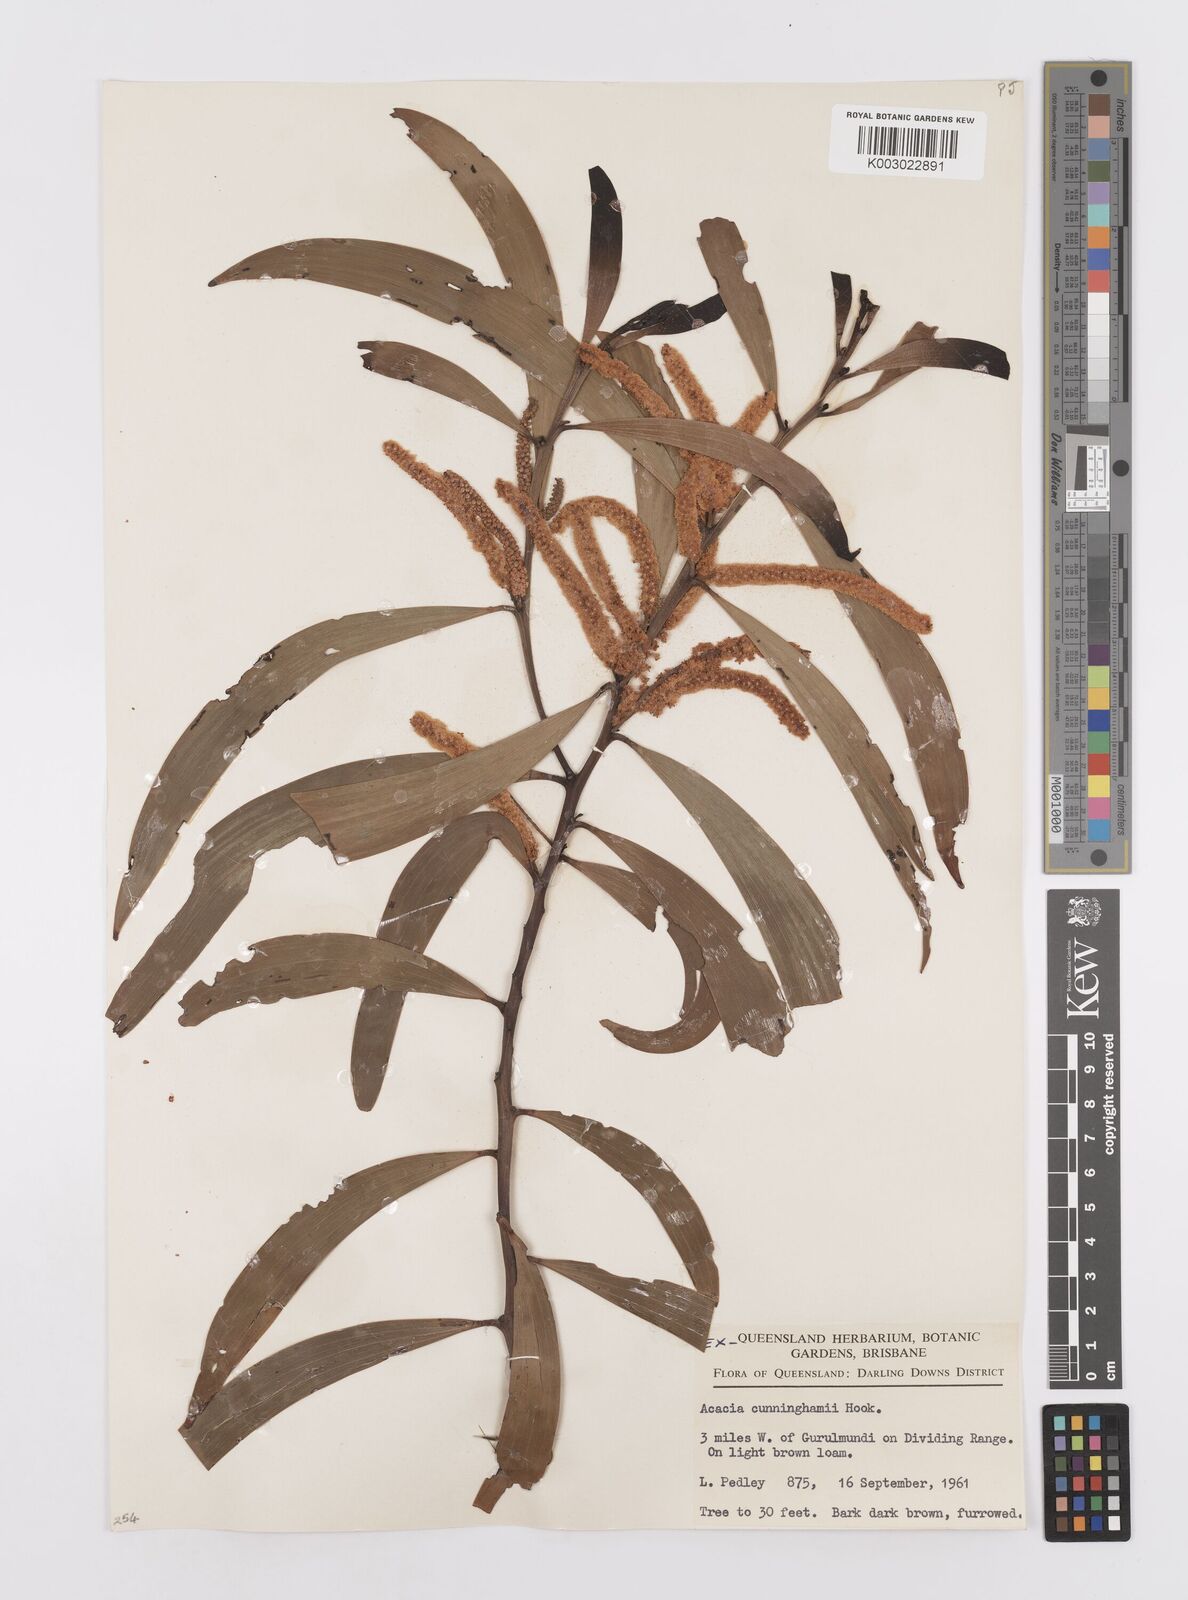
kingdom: Plantae
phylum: Tracheophyta
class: Magnoliopsida
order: Fabales
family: Fabaceae
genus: Acacia
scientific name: Acacia longispicata
